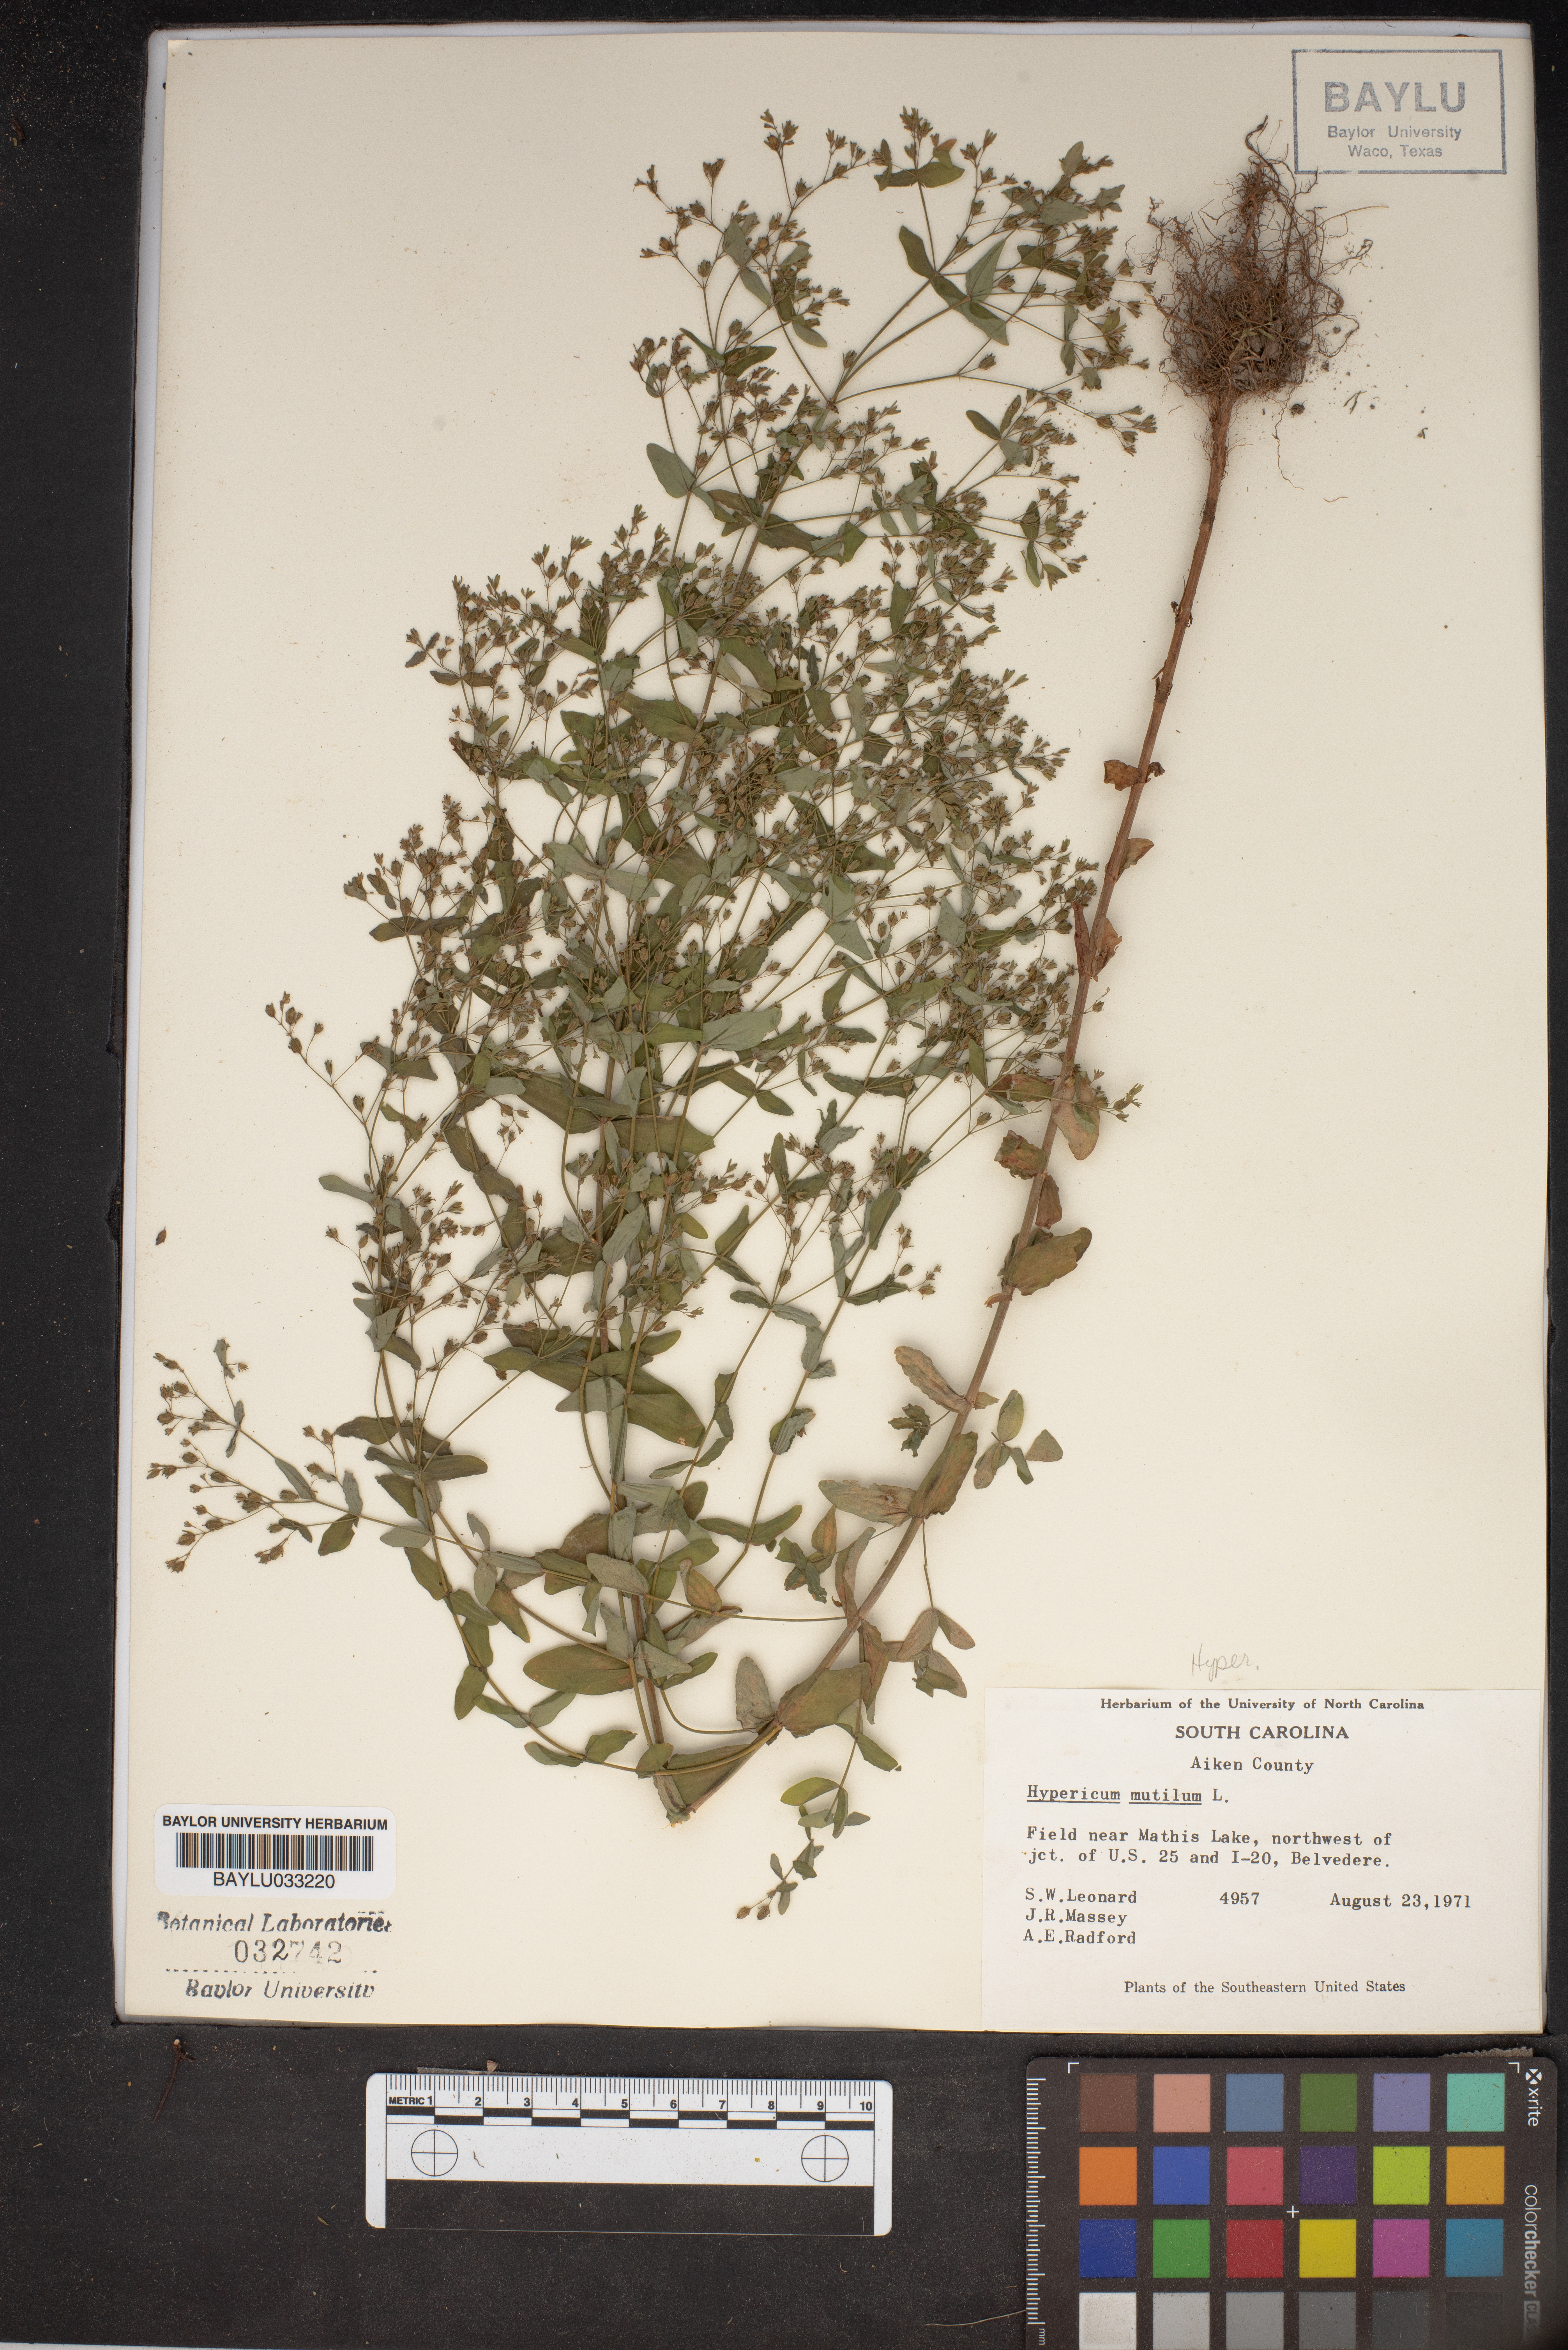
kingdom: Plantae
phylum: Tracheophyta
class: Magnoliopsida
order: Malpighiales
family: Hypericaceae
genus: Hypericum
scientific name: Hypericum mutilum
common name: Dwarf st. john's-wort
